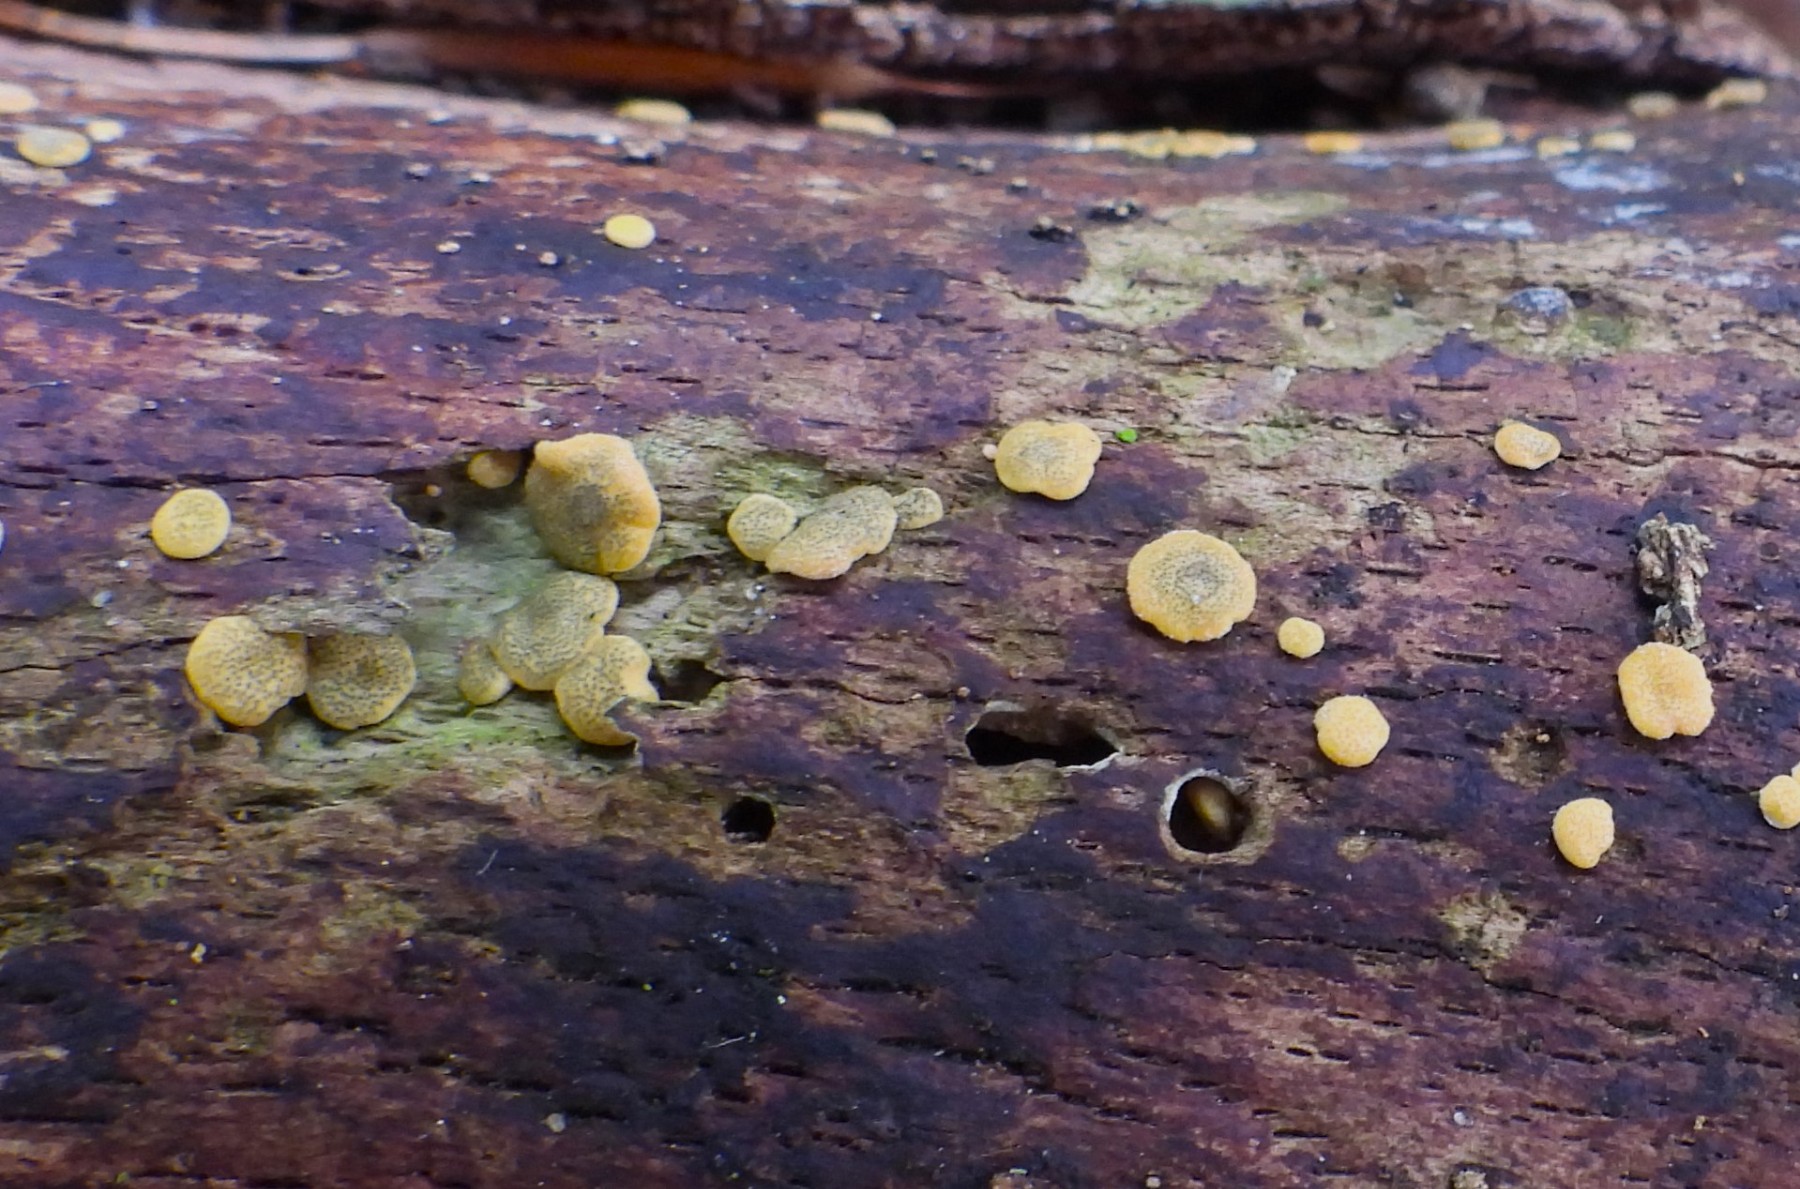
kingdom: Fungi
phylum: Ascomycota
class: Sordariomycetes
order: Hypocreales
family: Hypocreaceae
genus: Trichoderma
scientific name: Trichoderma aureoviride
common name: æggegul kødkerne
